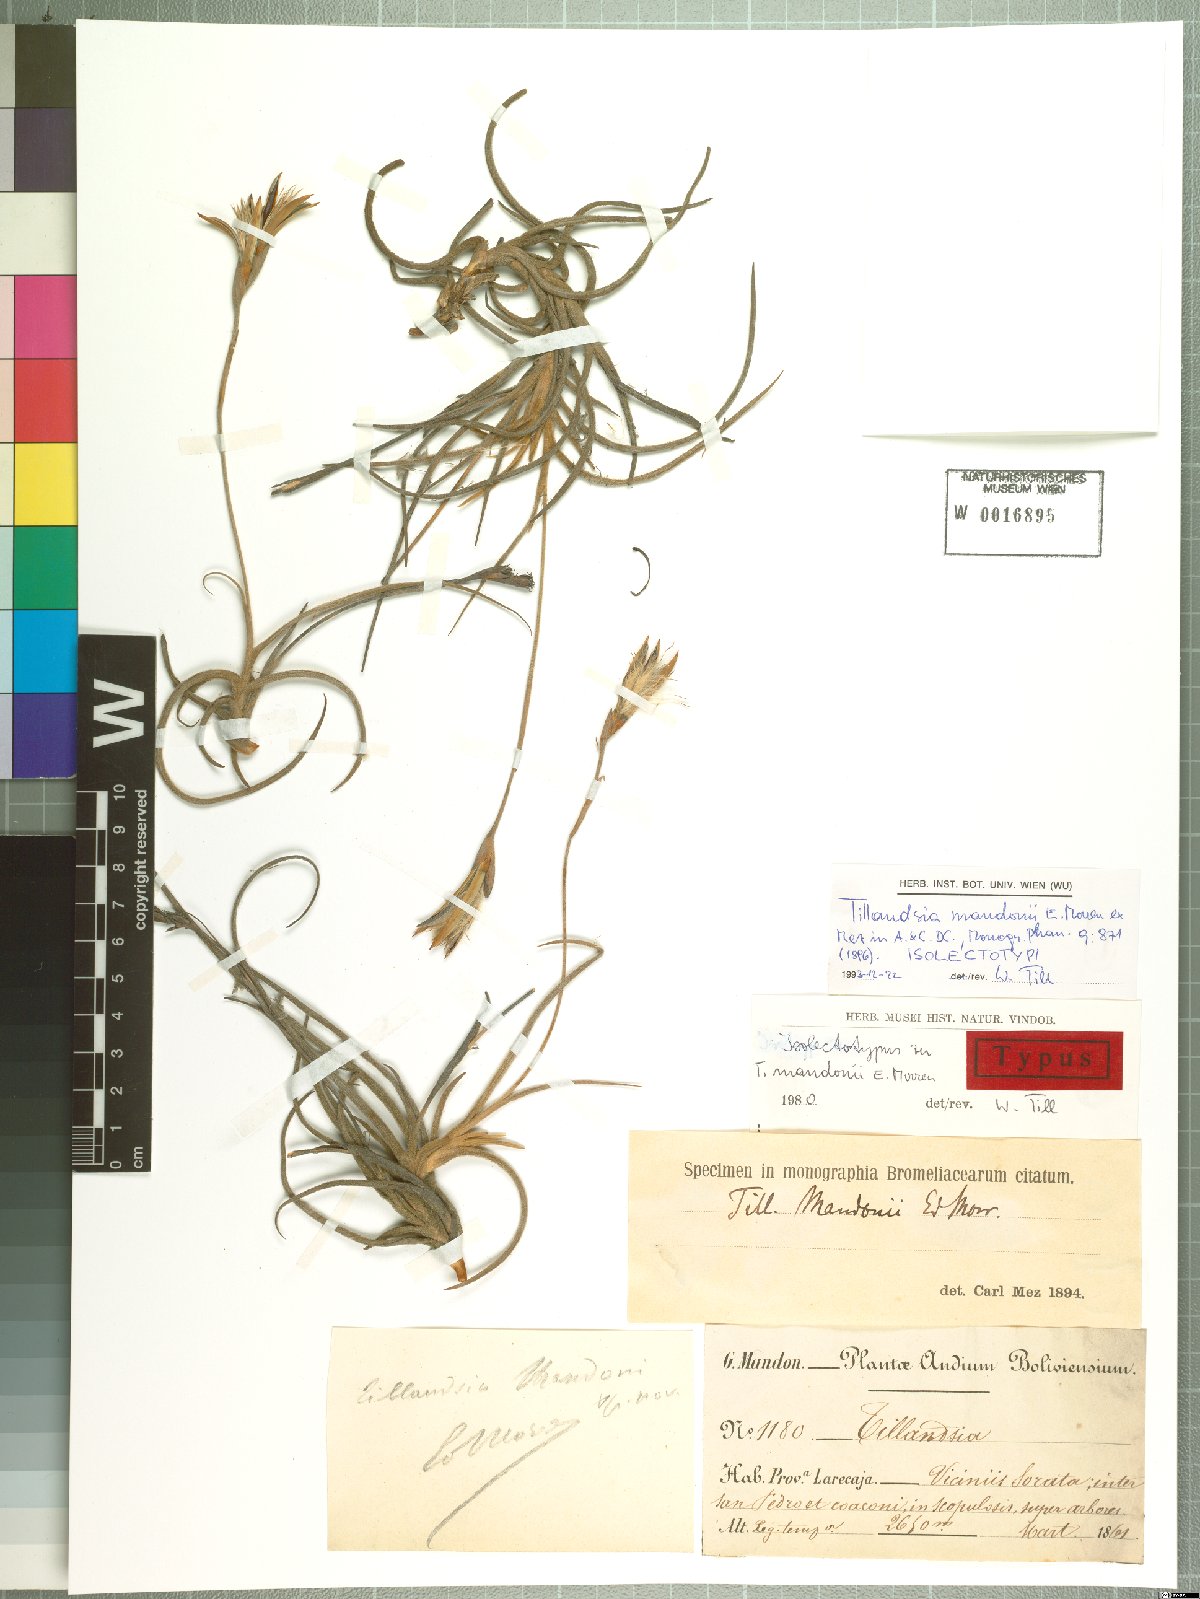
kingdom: Plantae
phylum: Tracheophyta
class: Liliopsida
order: Poales
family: Bromeliaceae
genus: Tillandsia
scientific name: Tillandsia crocata
